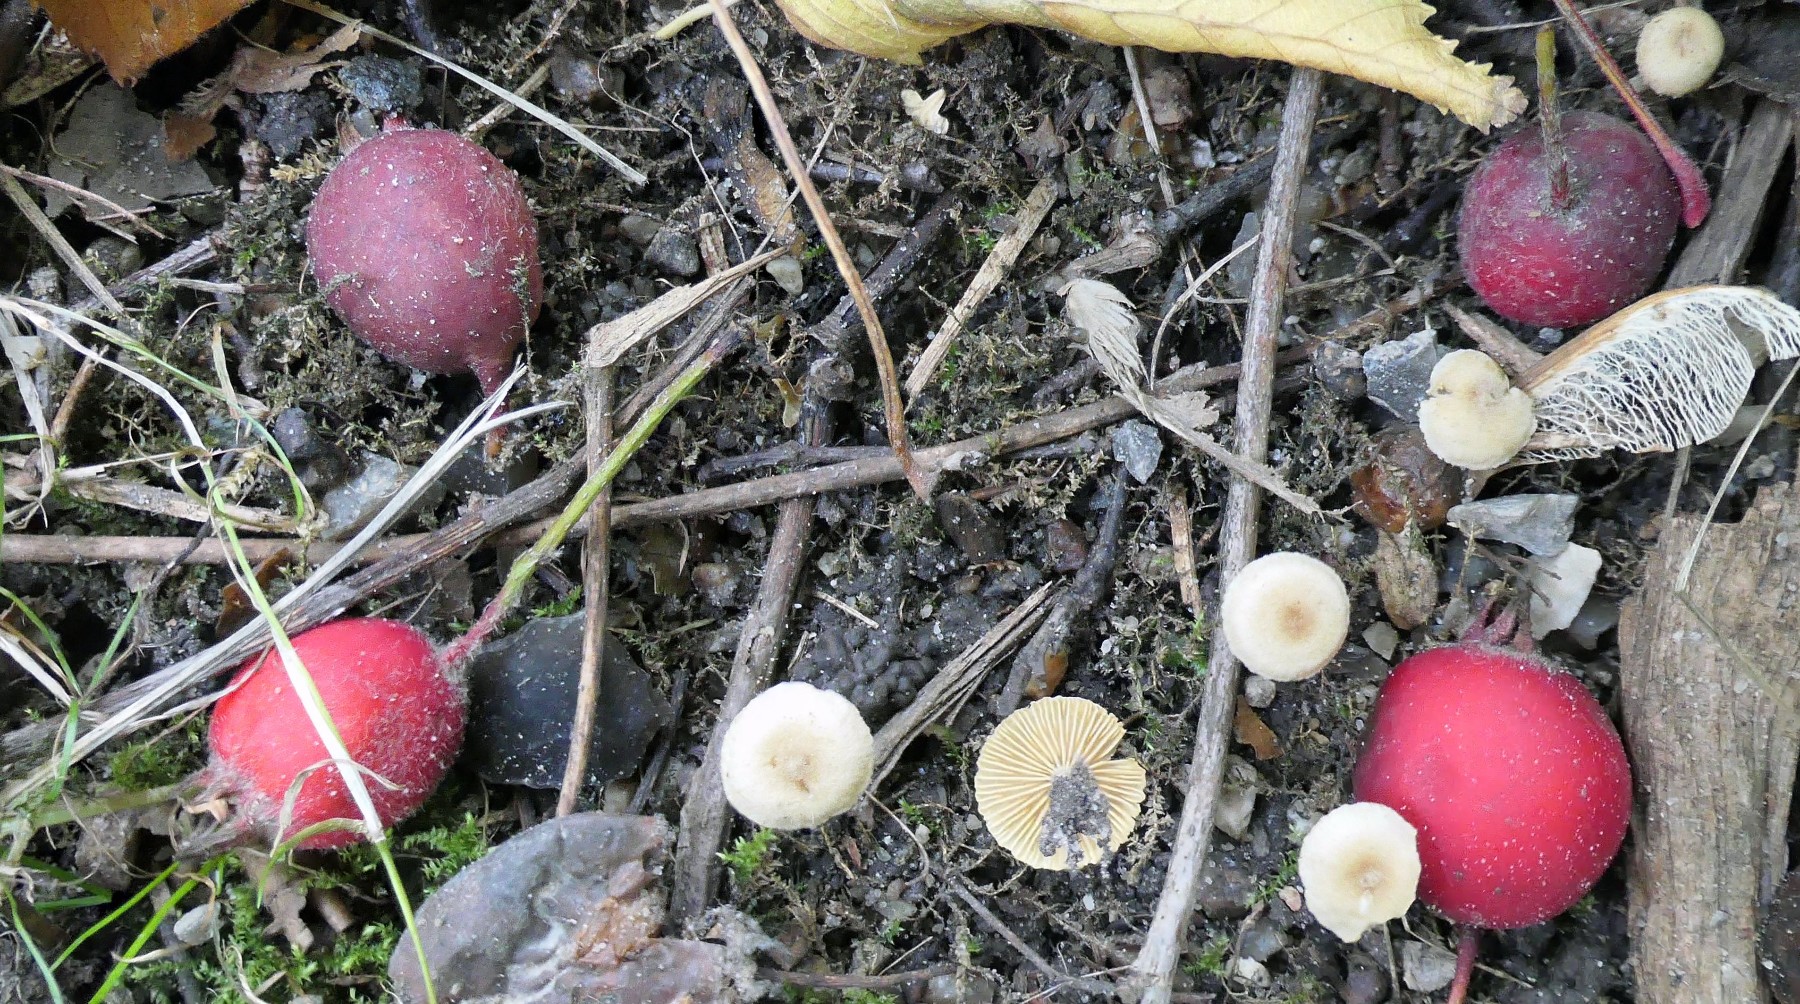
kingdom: Fungi
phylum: Basidiomycota
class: Agaricomycetes
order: Agaricales
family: Tubariaceae
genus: Tubaria
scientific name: Tubaria dispersa
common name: tjørne-fnughat
